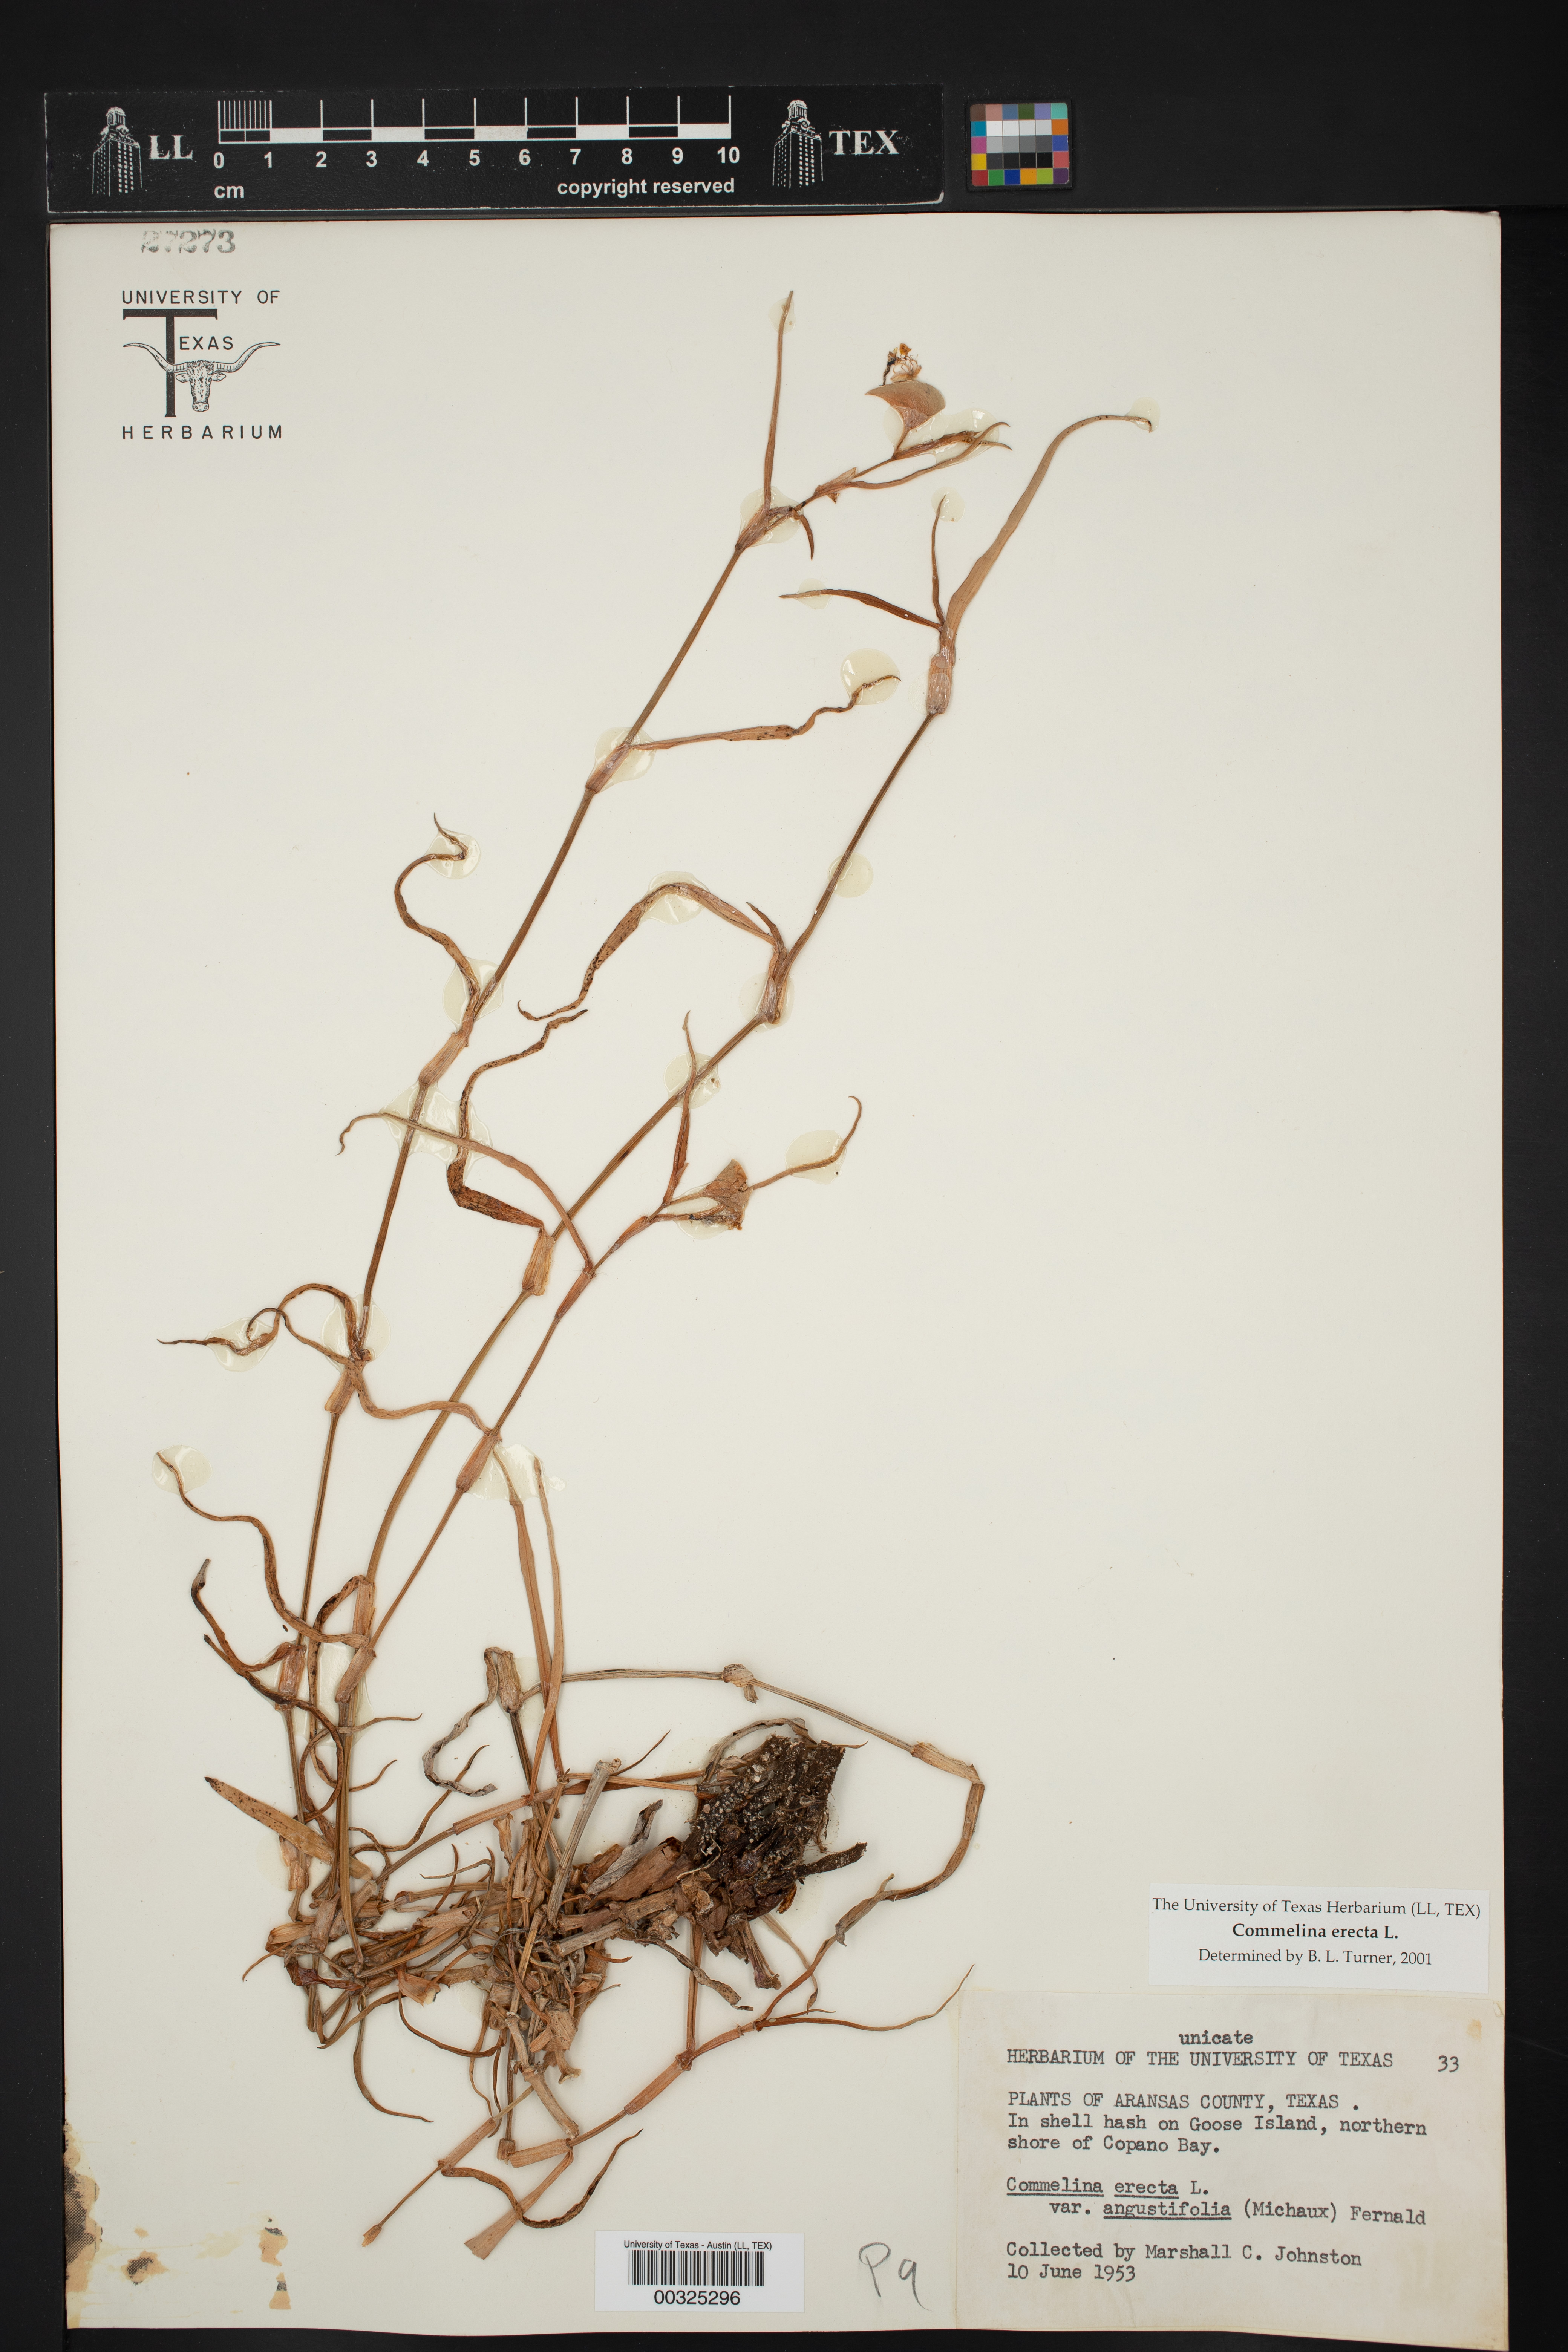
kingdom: Plantae
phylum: Tracheophyta
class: Liliopsida
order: Commelinales
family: Commelinaceae
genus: Commelina
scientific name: Commelina erecta
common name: Blousel blommetjie
